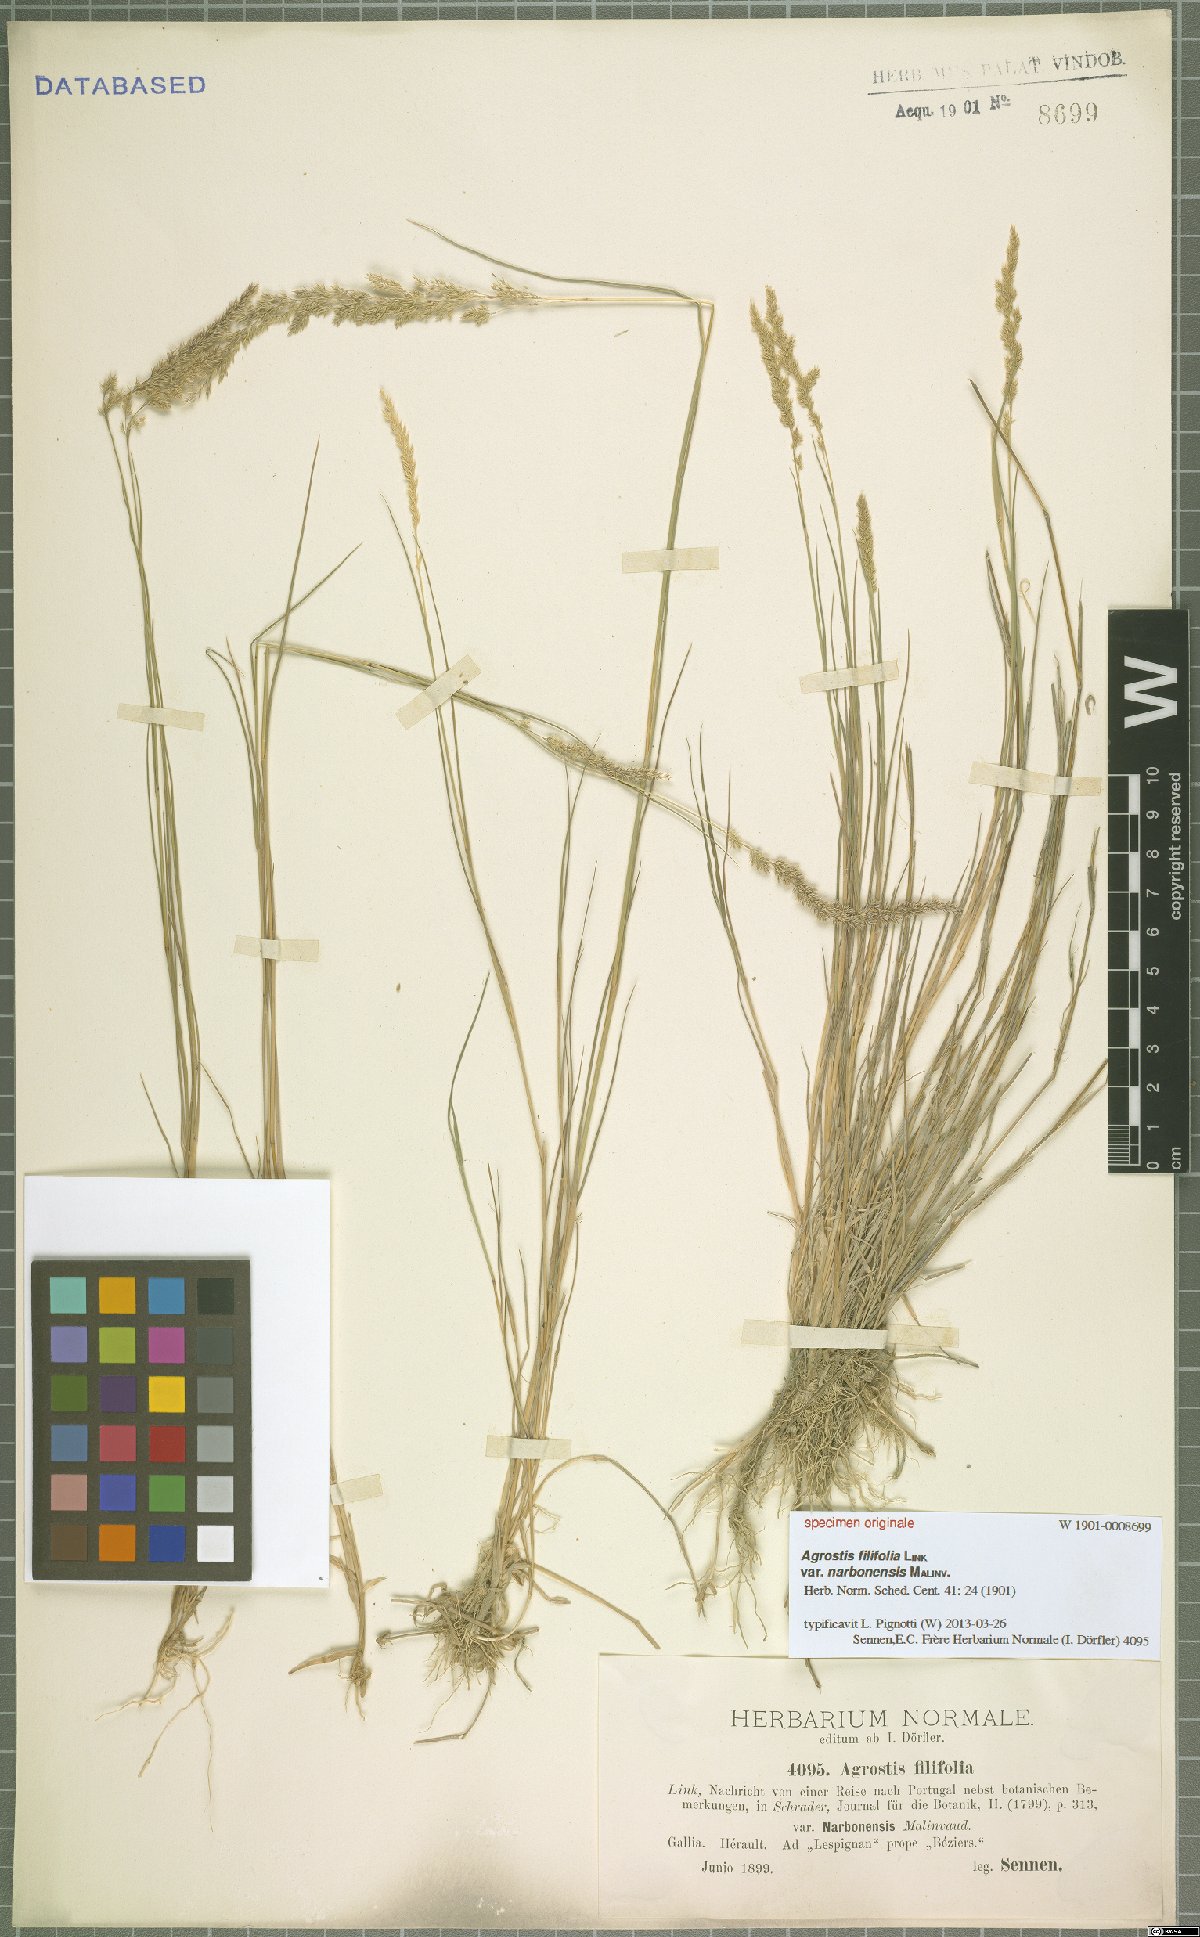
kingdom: Plantae
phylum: Tracheophyta
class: Liliopsida
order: Poales
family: Poaceae
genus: Agrostis
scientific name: Agrostis stolonifera
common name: Creeping bentgrass
